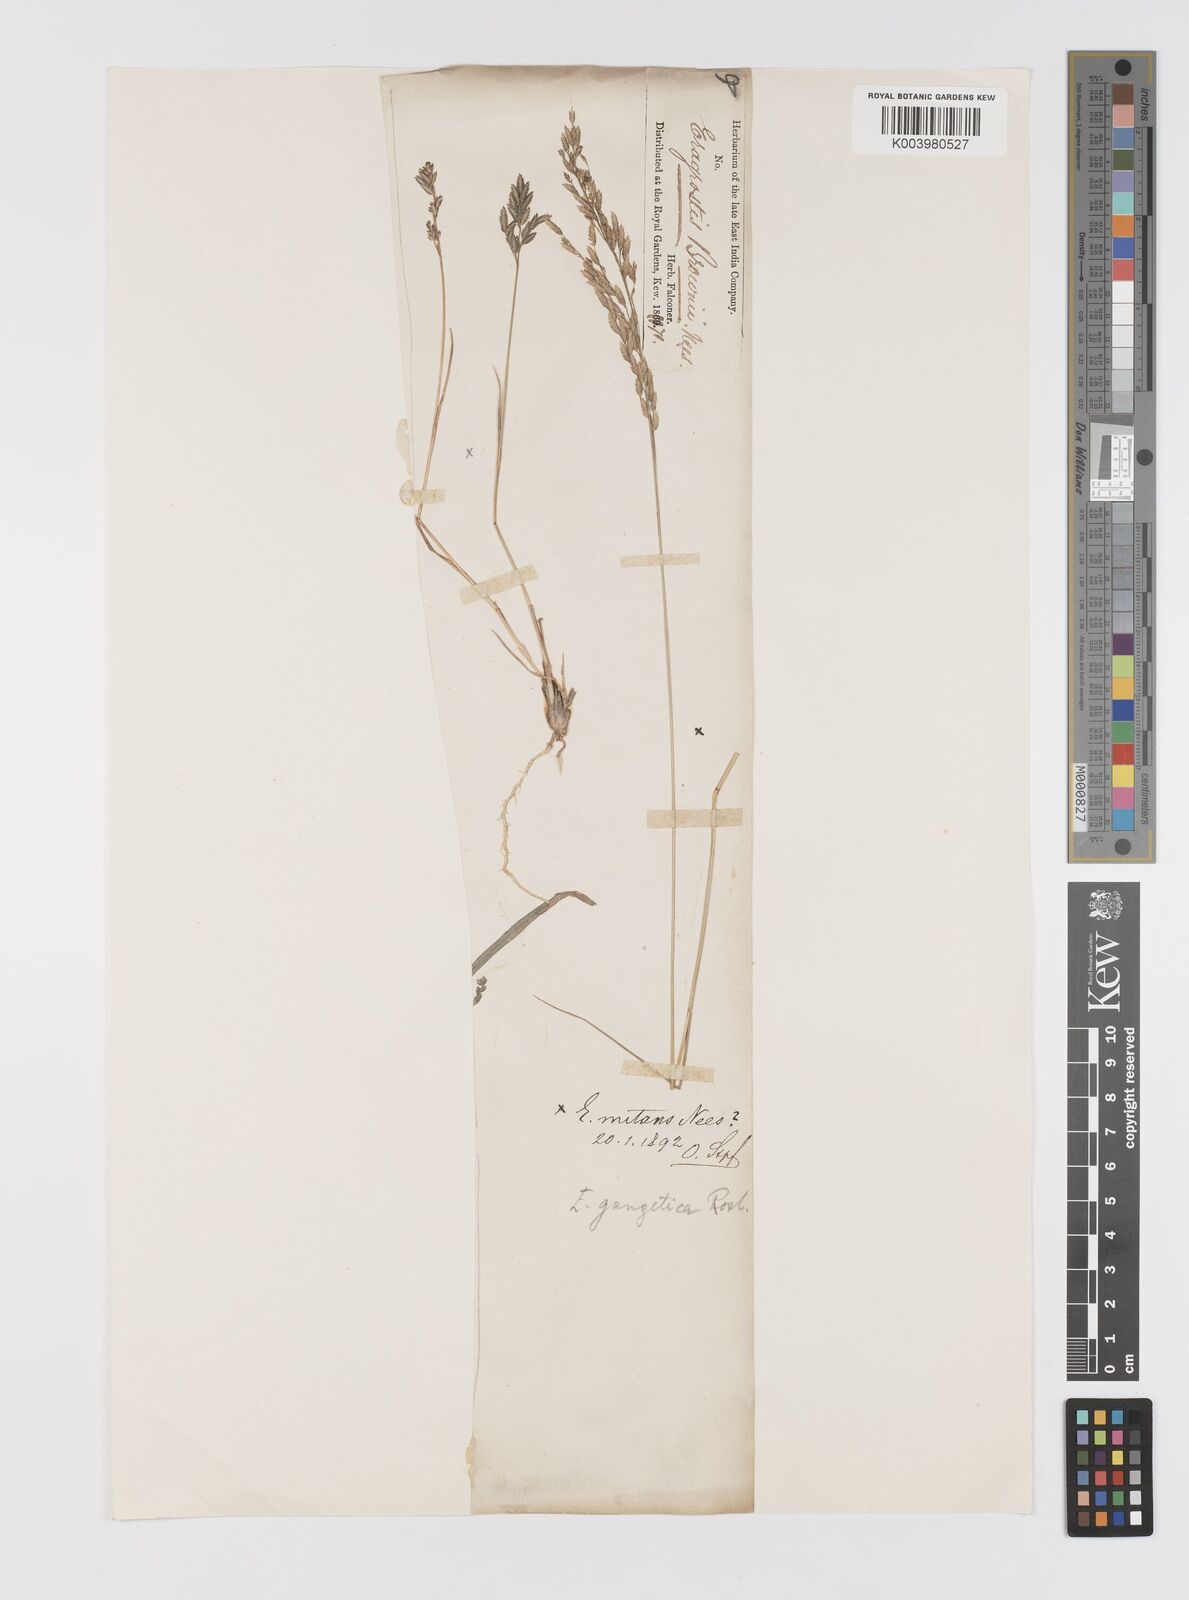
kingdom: Plantae
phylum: Tracheophyta
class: Liliopsida
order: Poales
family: Poaceae
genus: Eragrostis
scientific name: Eragrostis
